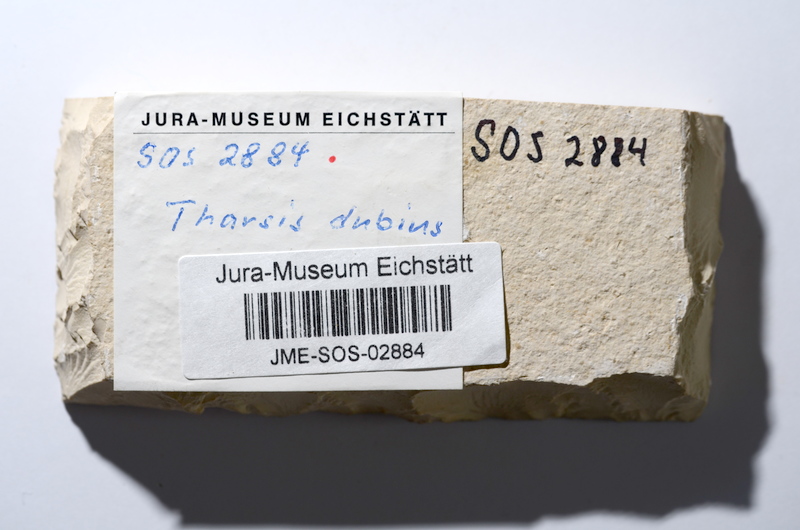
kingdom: Animalia
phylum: Chordata
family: Ascalaboidae
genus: Tharsis
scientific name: Tharsis dubius
